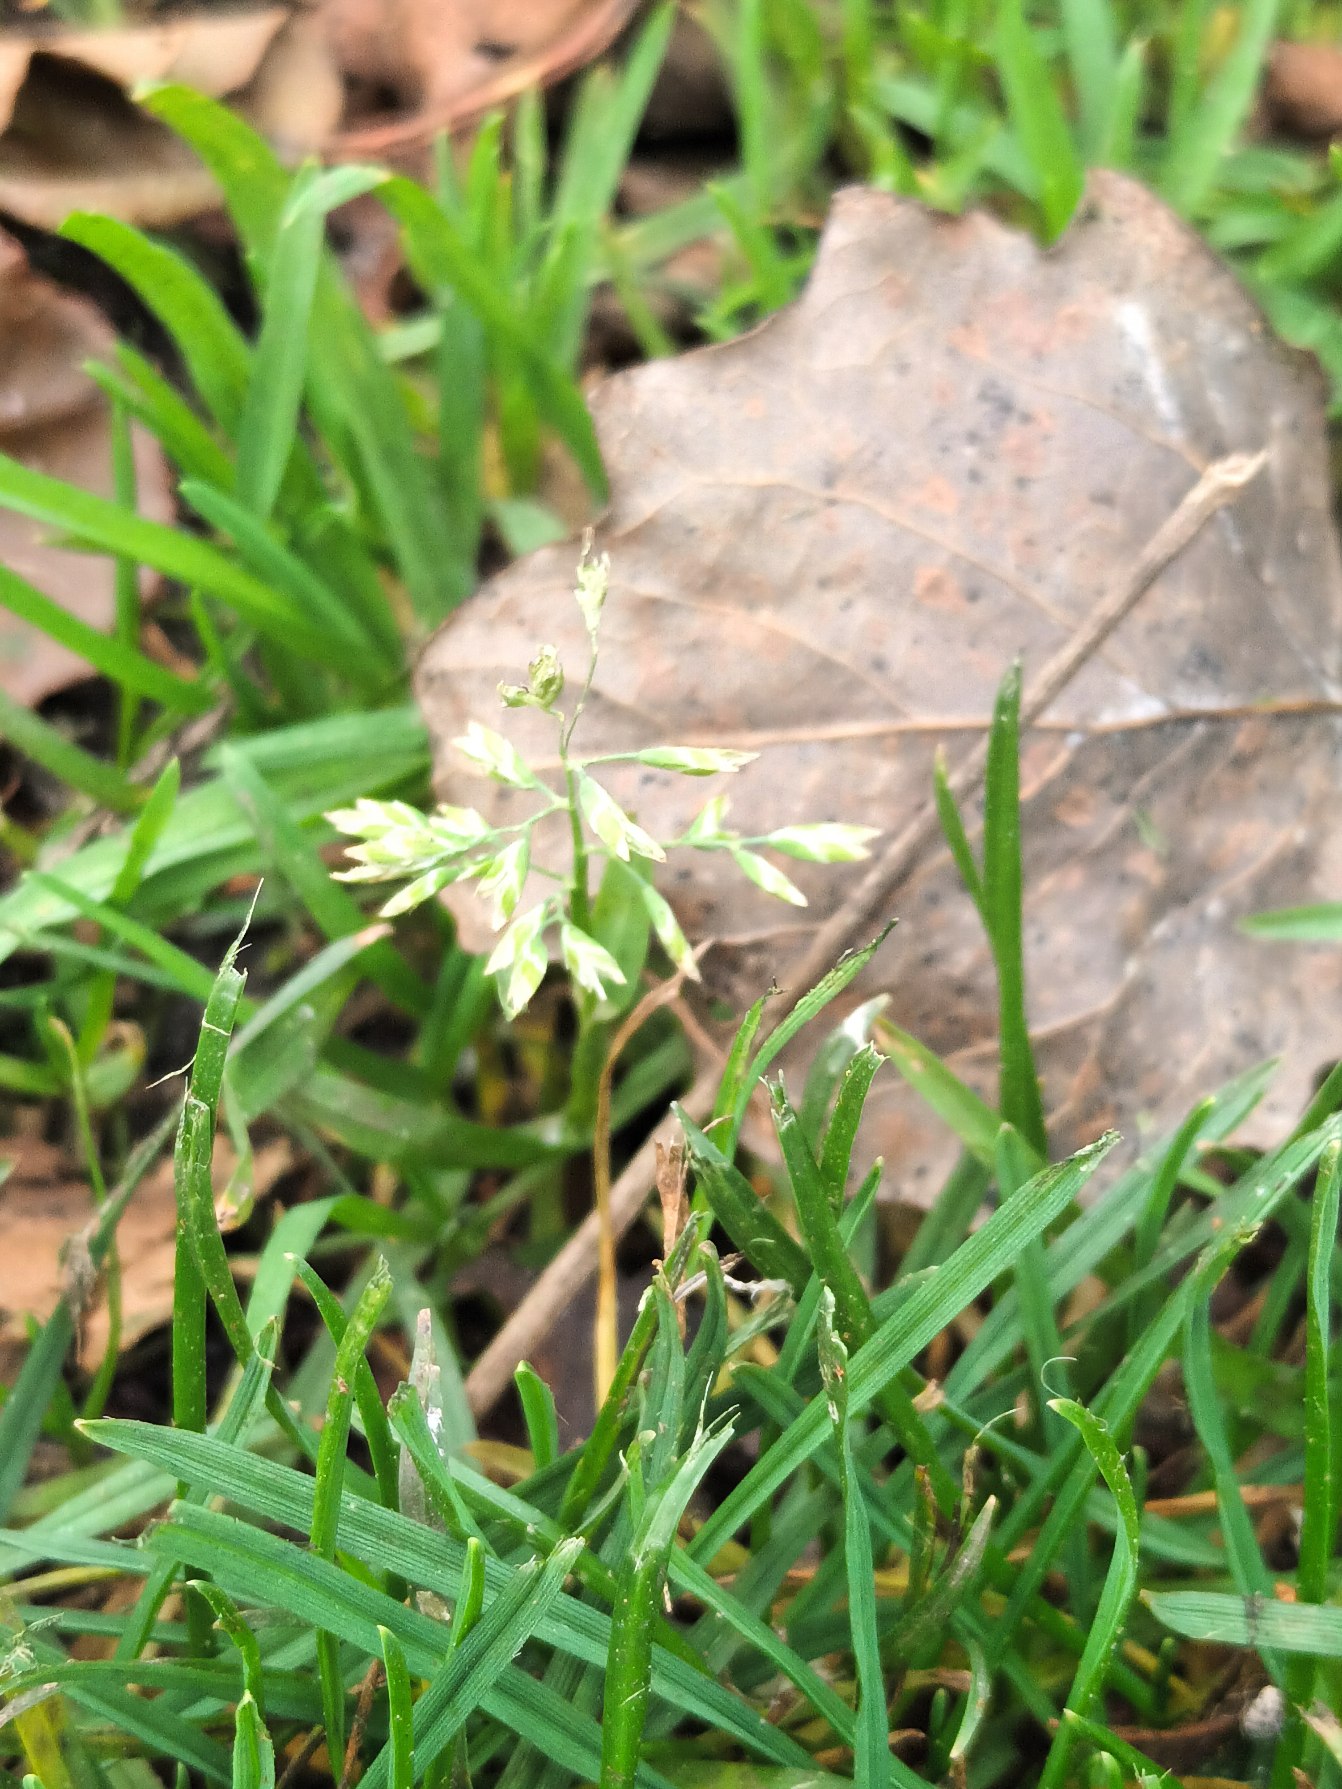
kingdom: Plantae
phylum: Tracheophyta
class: Liliopsida
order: Poales
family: Poaceae
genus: Poa
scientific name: Poa annua
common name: Enårig rapgræs
